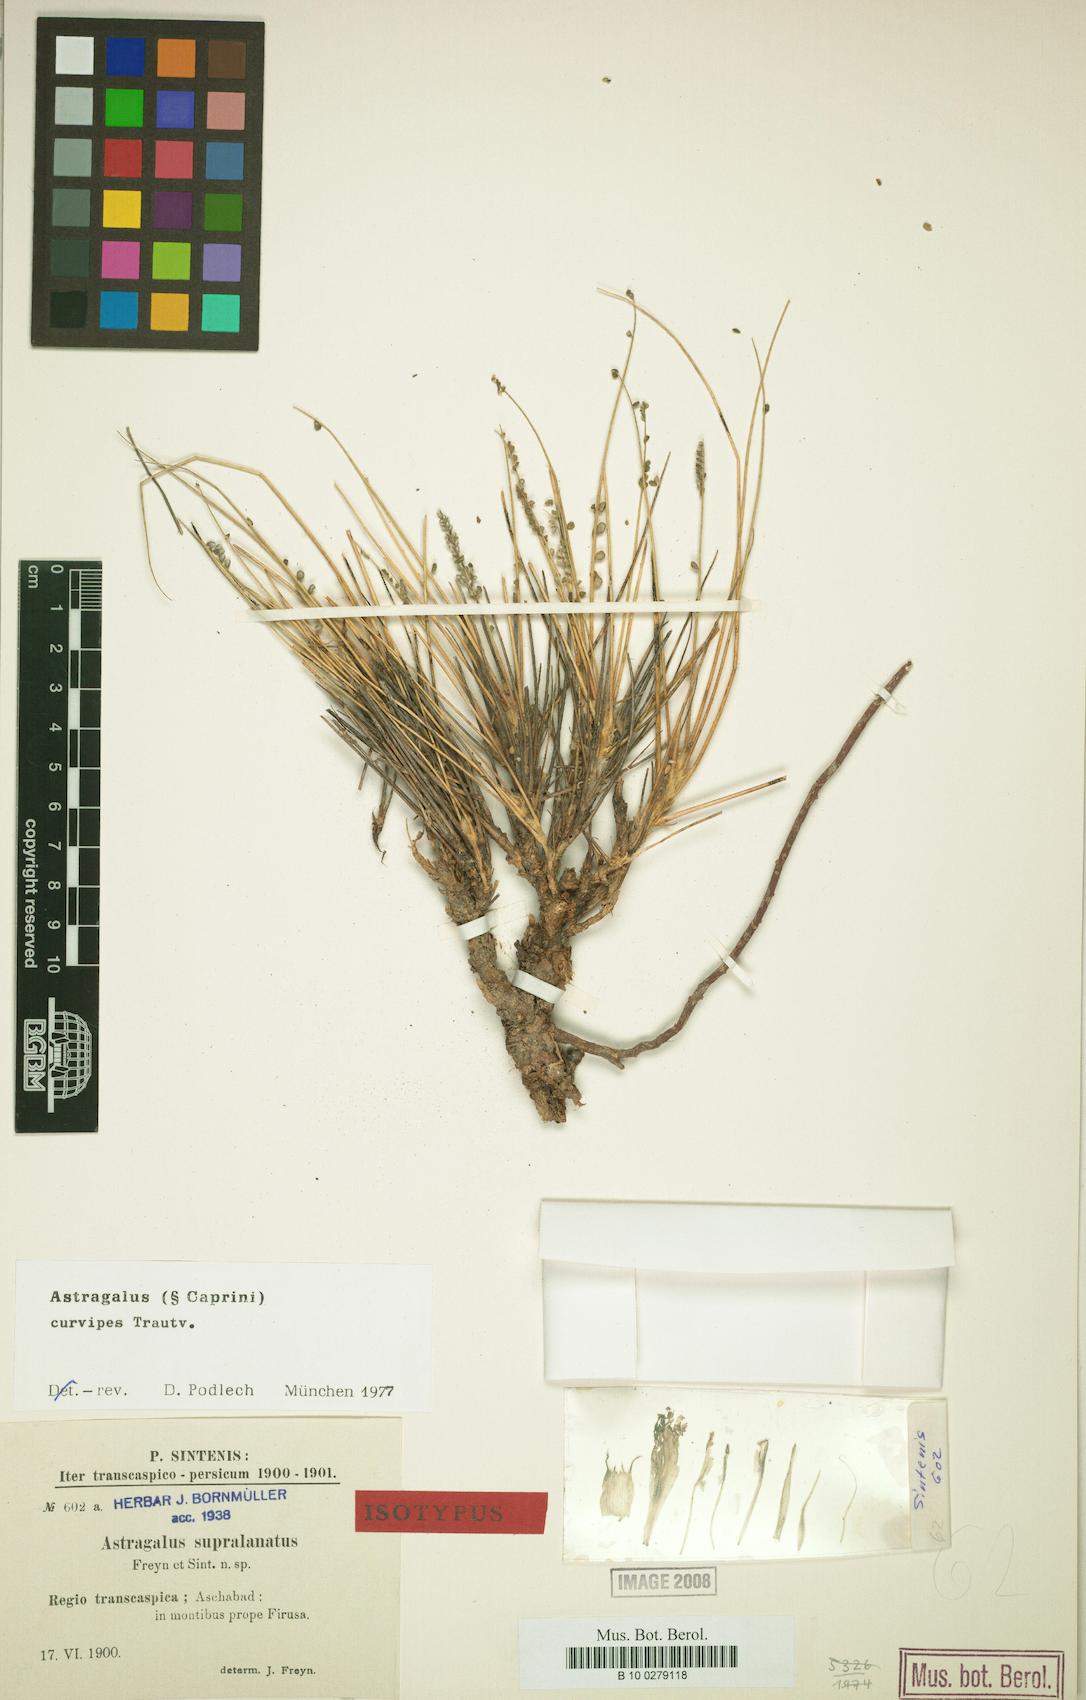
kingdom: Plantae
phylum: Tracheophyta
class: Magnoliopsida
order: Fabales
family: Fabaceae
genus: Astragalus
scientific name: Astragalus curvipes
